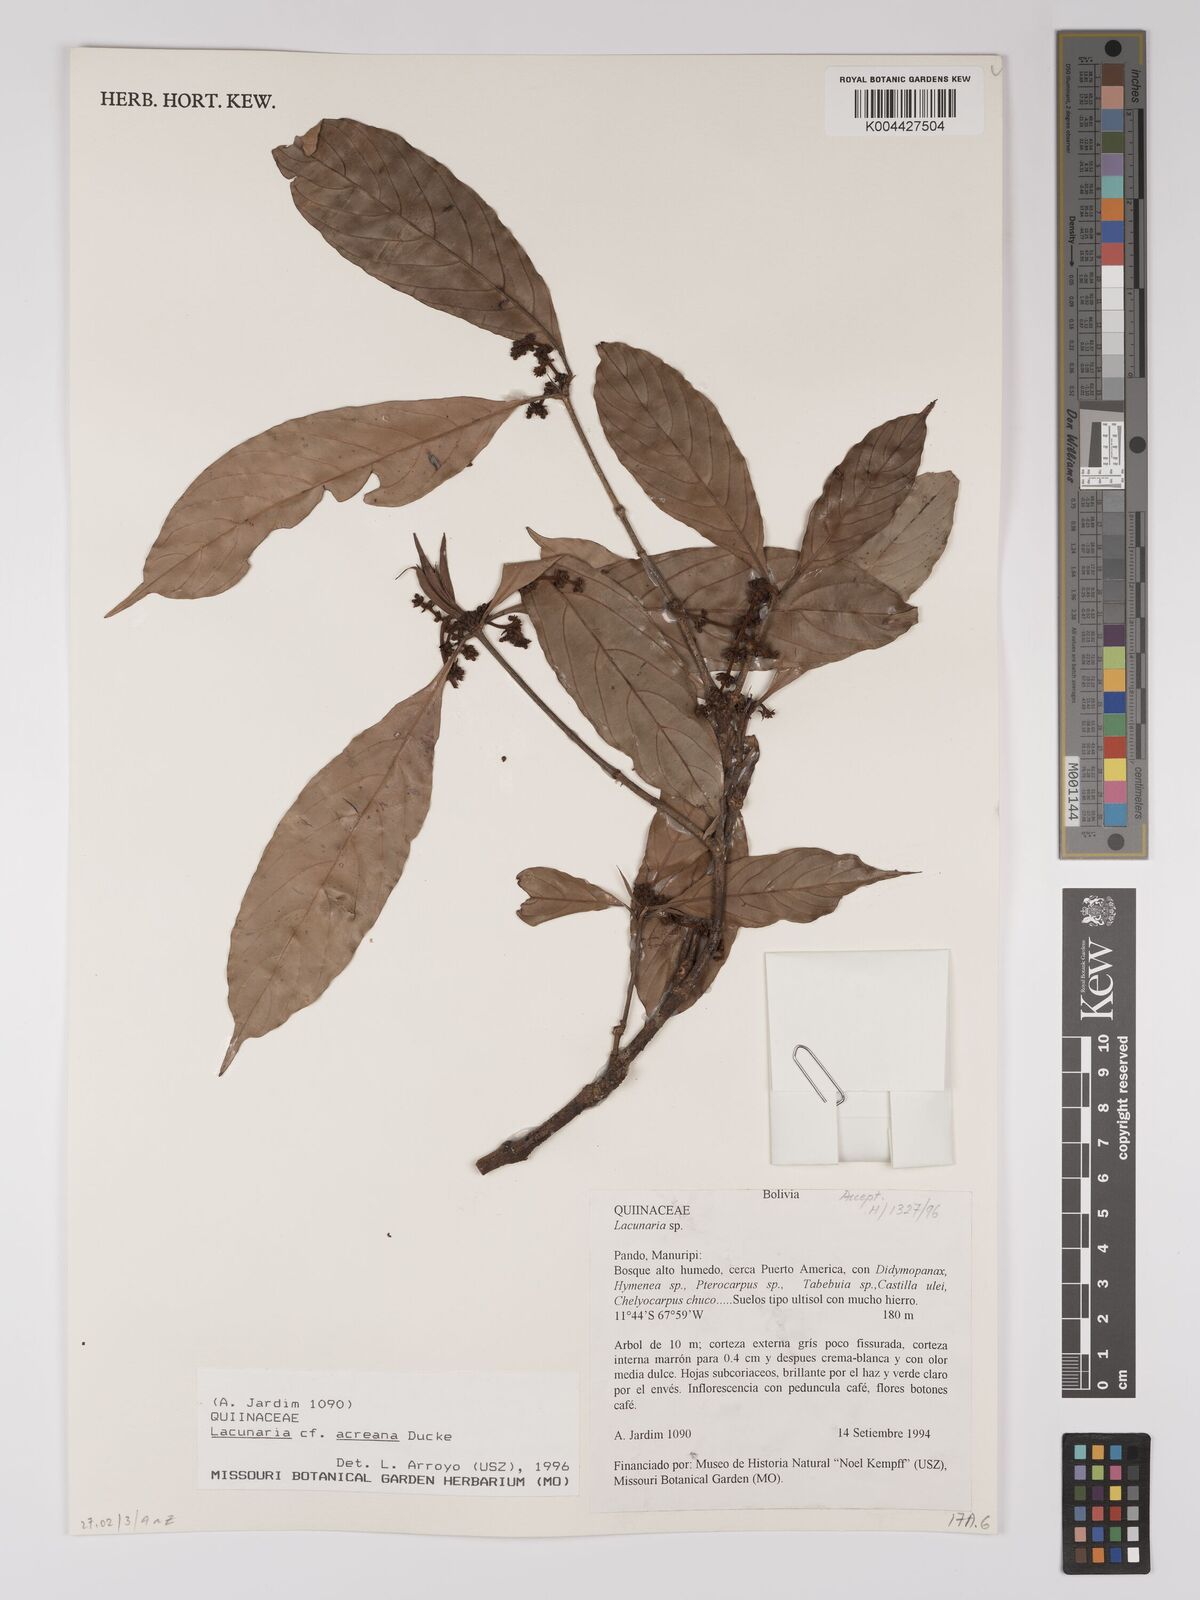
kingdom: Plantae
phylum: Tracheophyta
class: Magnoliopsida
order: Malpighiales
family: Quiinaceae
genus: Lacunaria
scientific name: Lacunaria macrostachya
